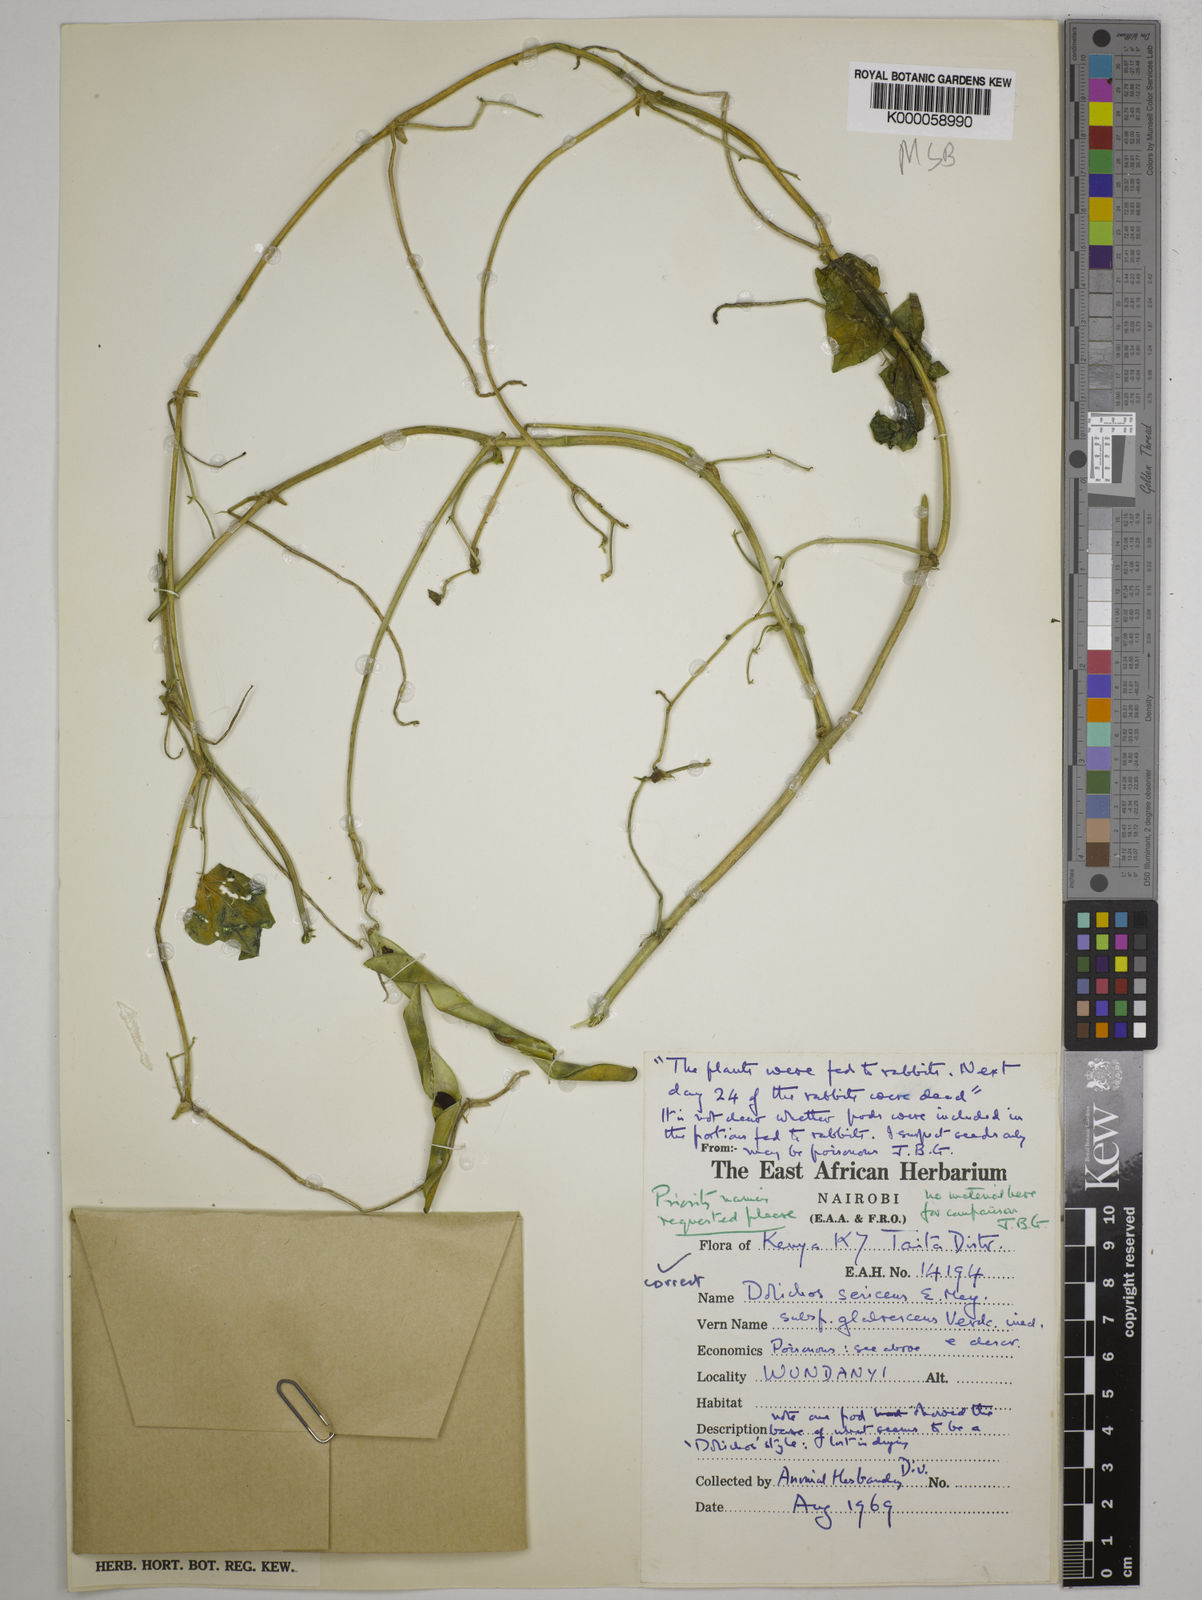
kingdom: Plantae
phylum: Tracheophyta
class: Magnoliopsida
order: Fabales
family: Fabaceae
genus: Dolichos
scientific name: Dolichos sericeus
